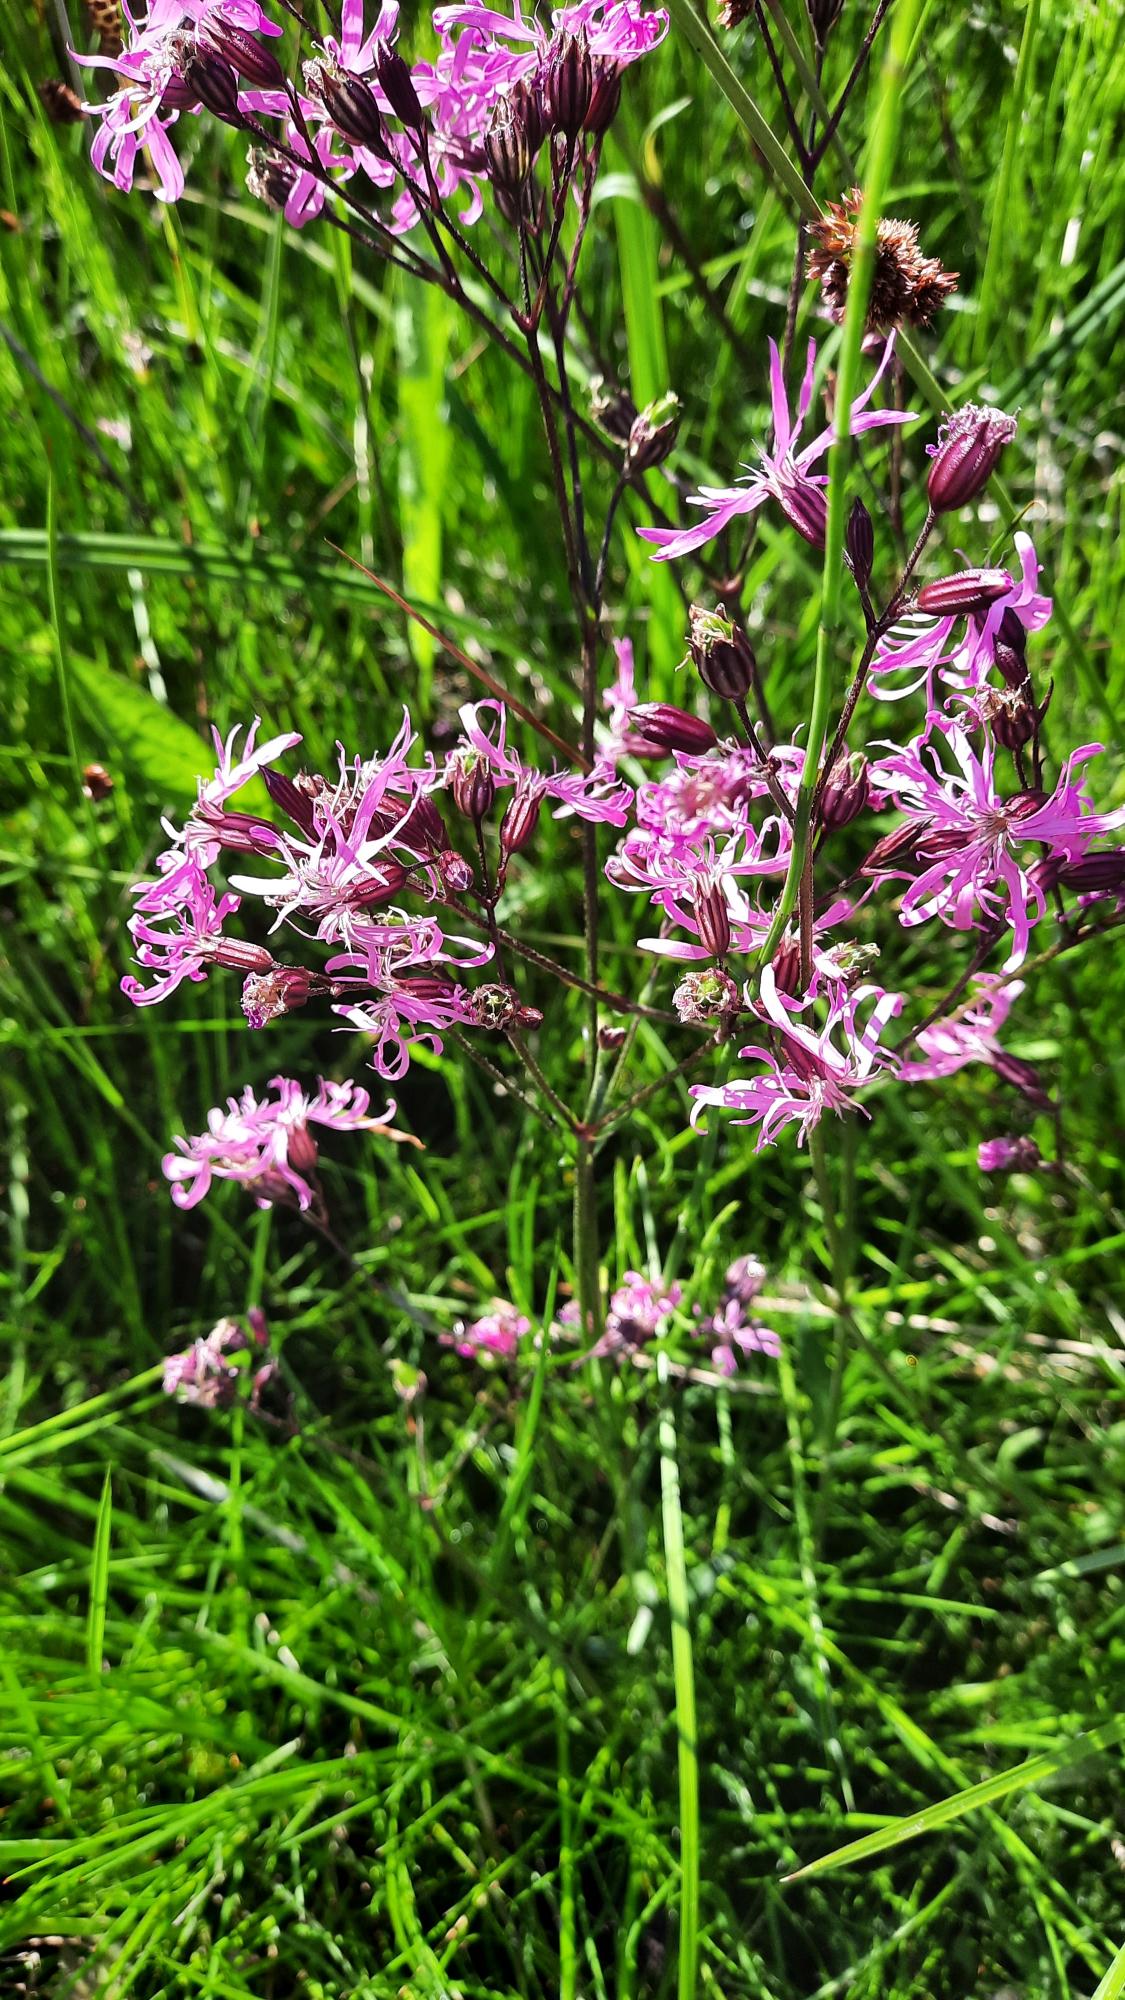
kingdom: Plantae
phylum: Tracheophyta
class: Magnoliopsida
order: Caryophyllales
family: Caryophyllaceae
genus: Silene
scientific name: Silene flos-cuculi
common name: Trævlekrone
